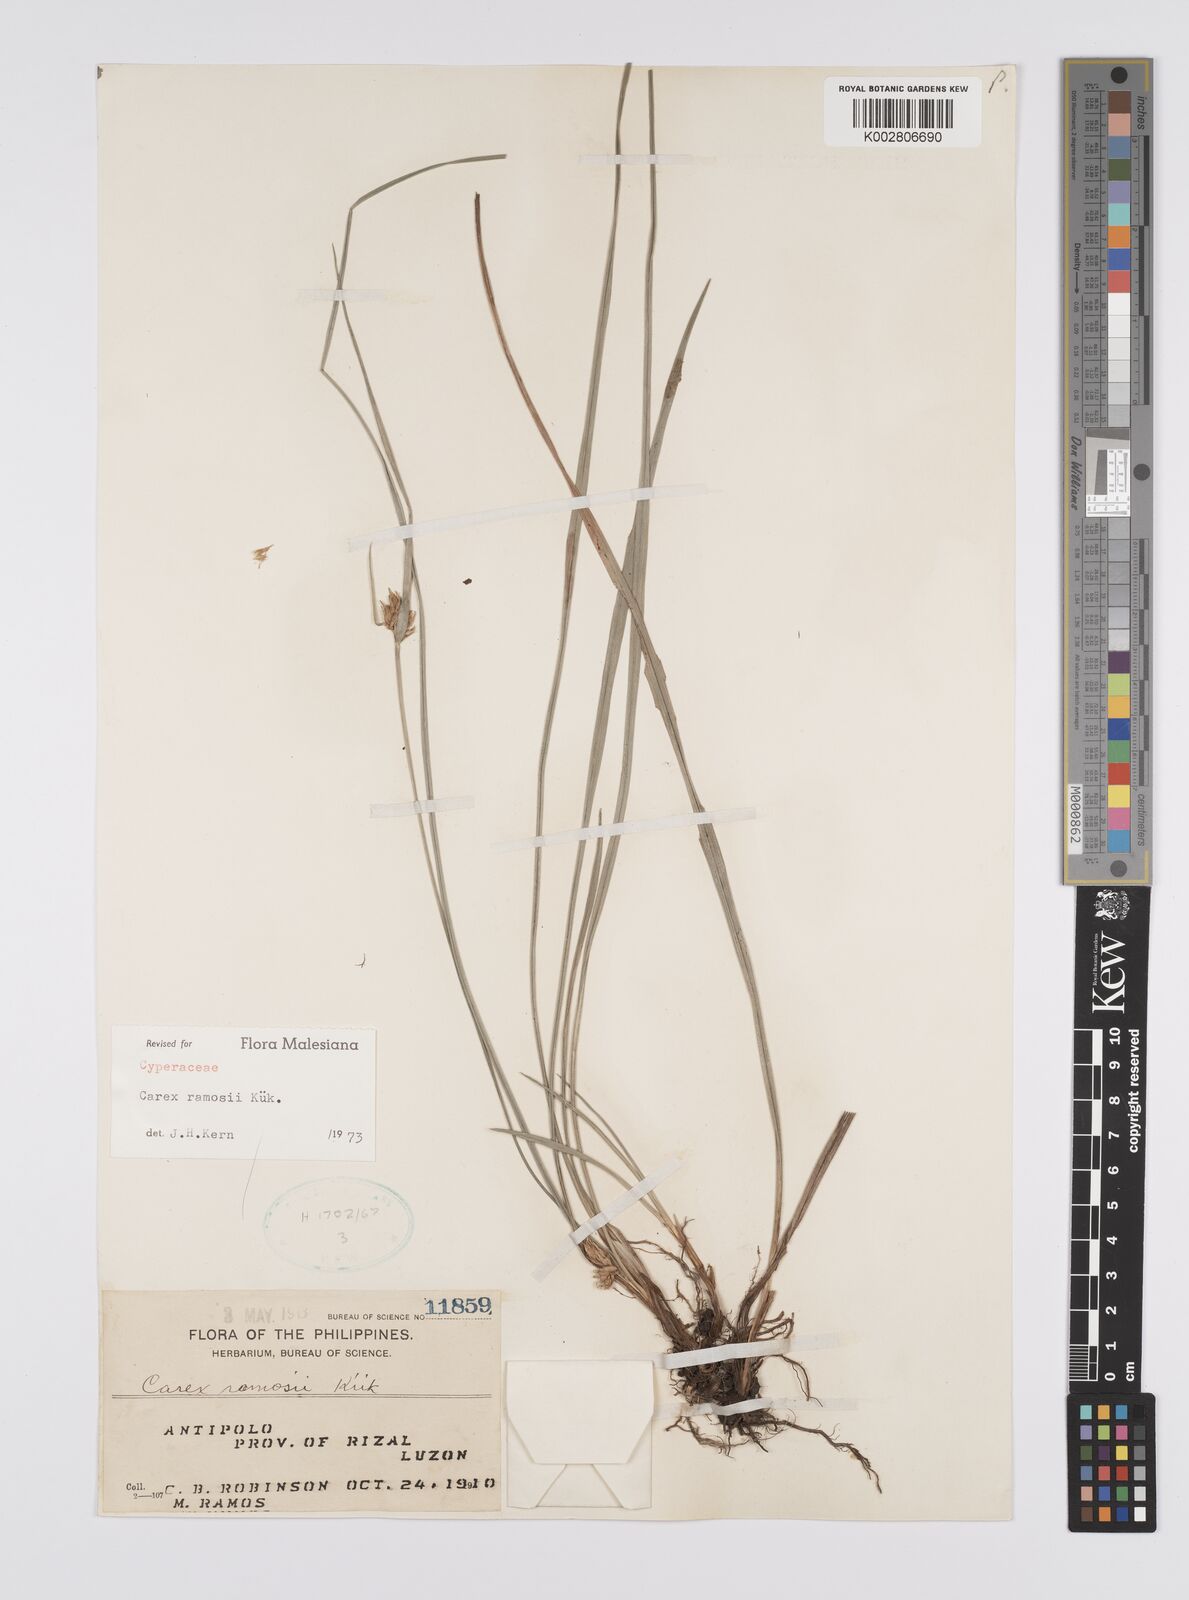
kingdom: Plantae
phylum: Tracheophyta
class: Liliopsida
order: Poales
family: Cyperaceae
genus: Carex
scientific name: Carex ramosii
